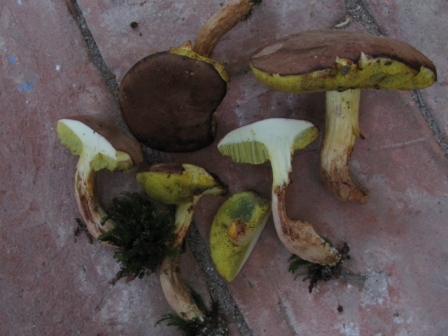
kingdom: Fungi
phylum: Basidiomycota
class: Agaricomycetes
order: Boletales
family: Boletaceae
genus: Xerocomus
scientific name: Xerocomus ferrugineus
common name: vaskeskinds-rørhat
